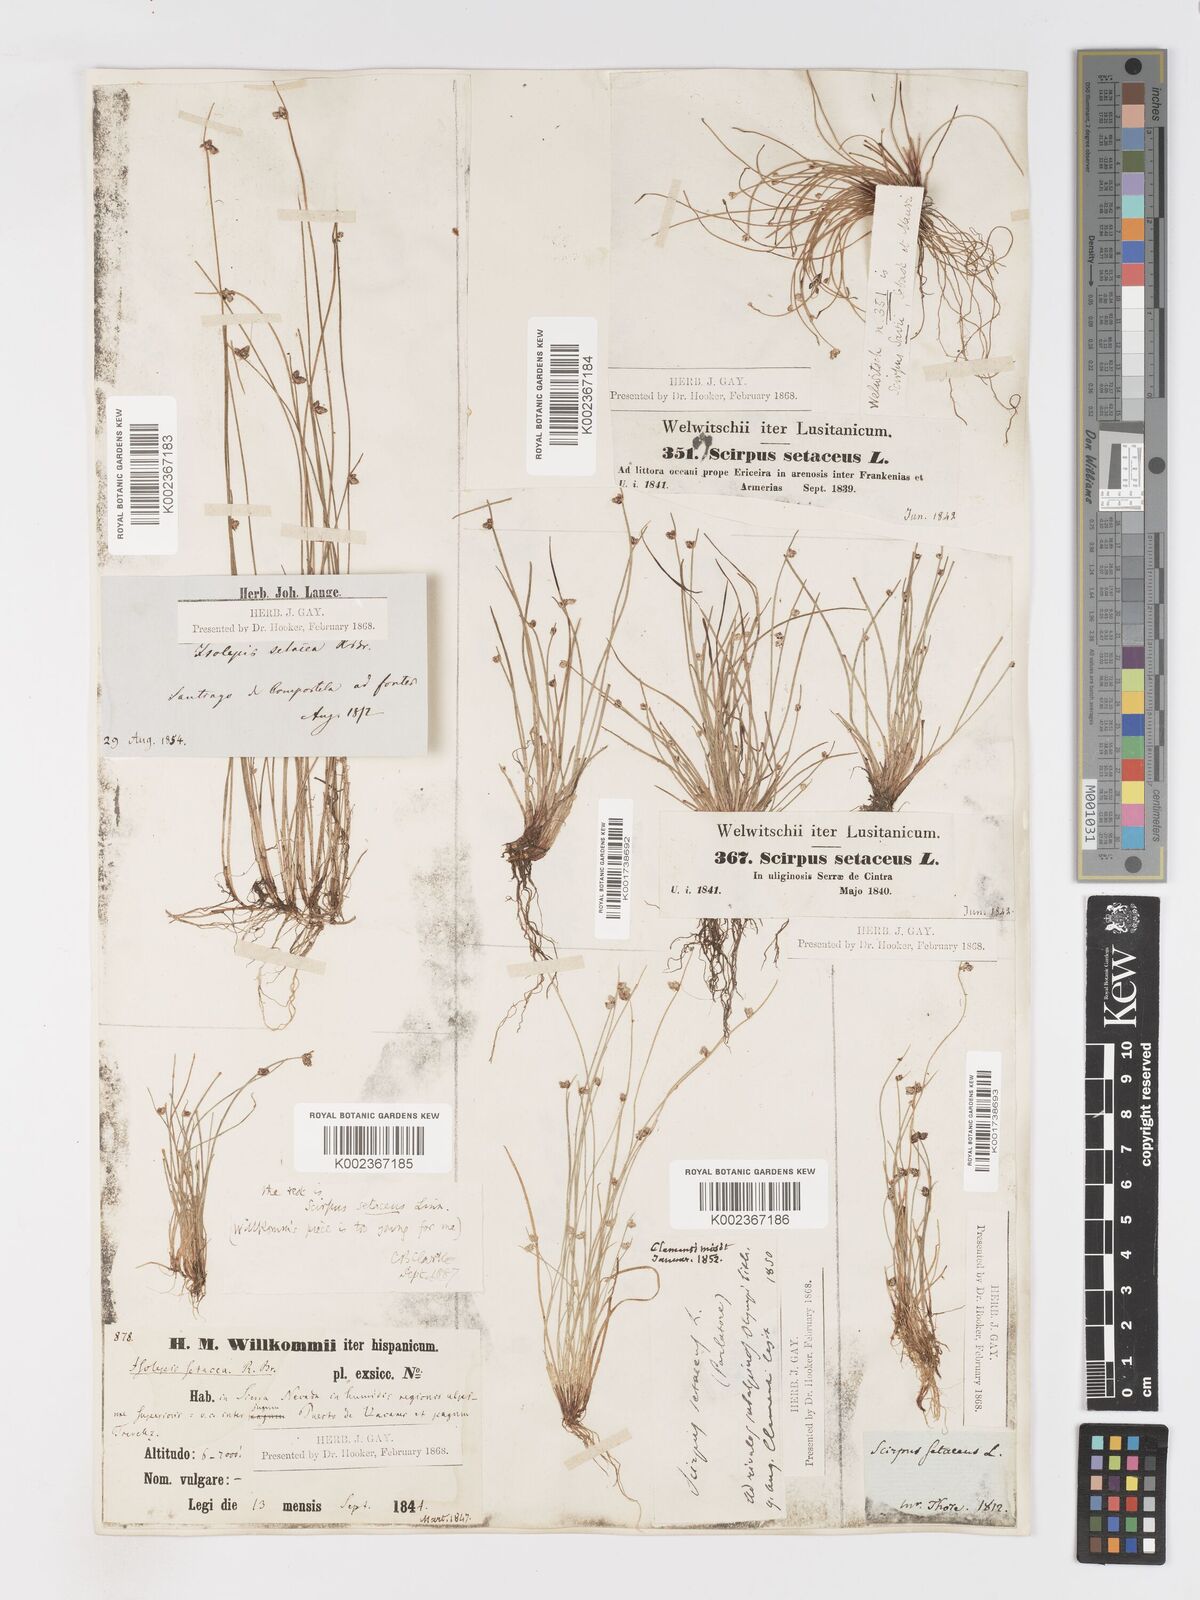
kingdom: Plantae
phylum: Tracheophyta
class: Liliopsida
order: Poales
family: Cyperaceae
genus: Isolepis
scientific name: Isolepis setacea
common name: Bristle club-rush
